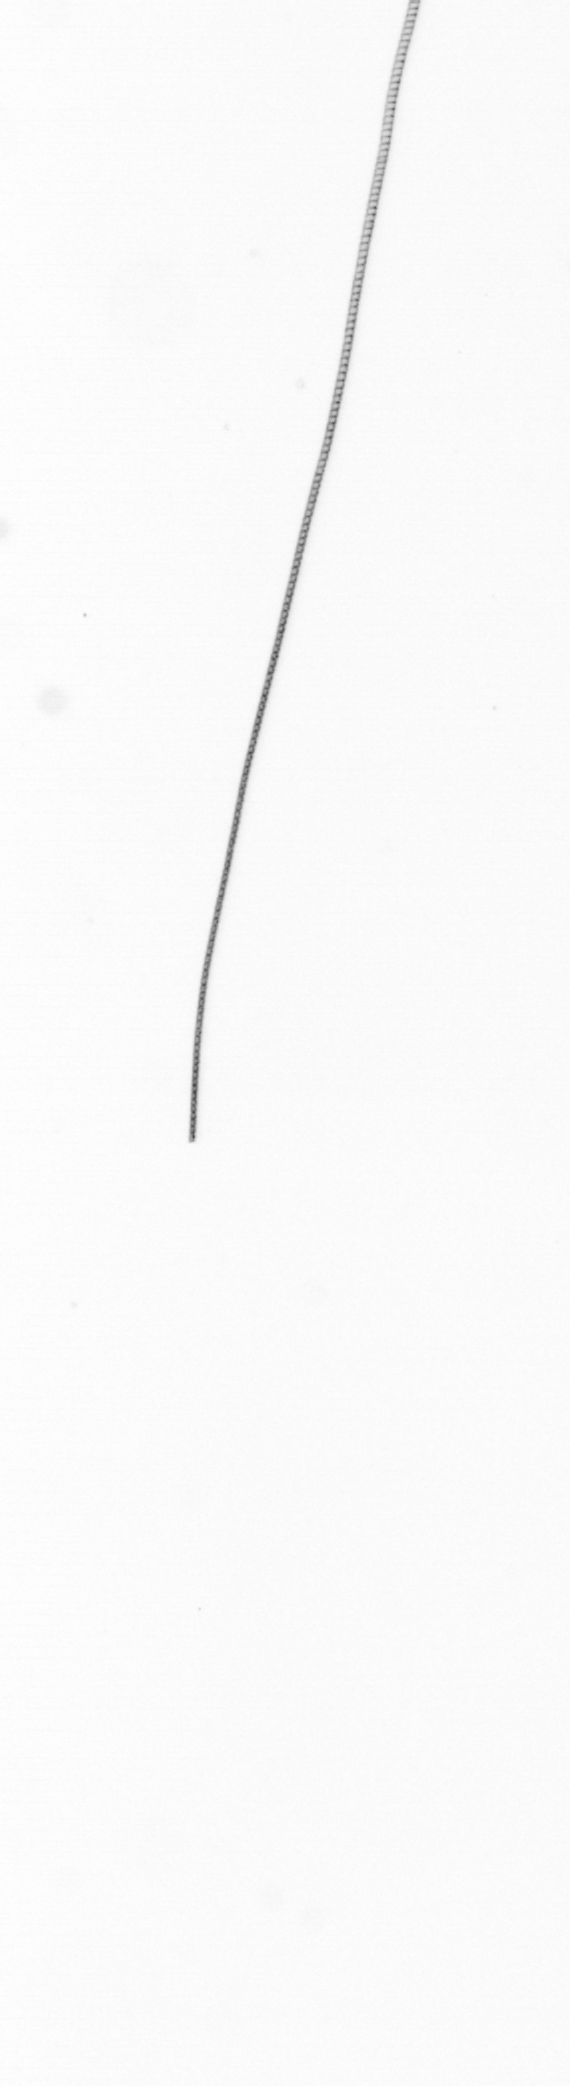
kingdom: Chromista
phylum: Ochrophyta
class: Bacillariophyceae
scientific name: Bacillariophyceae
